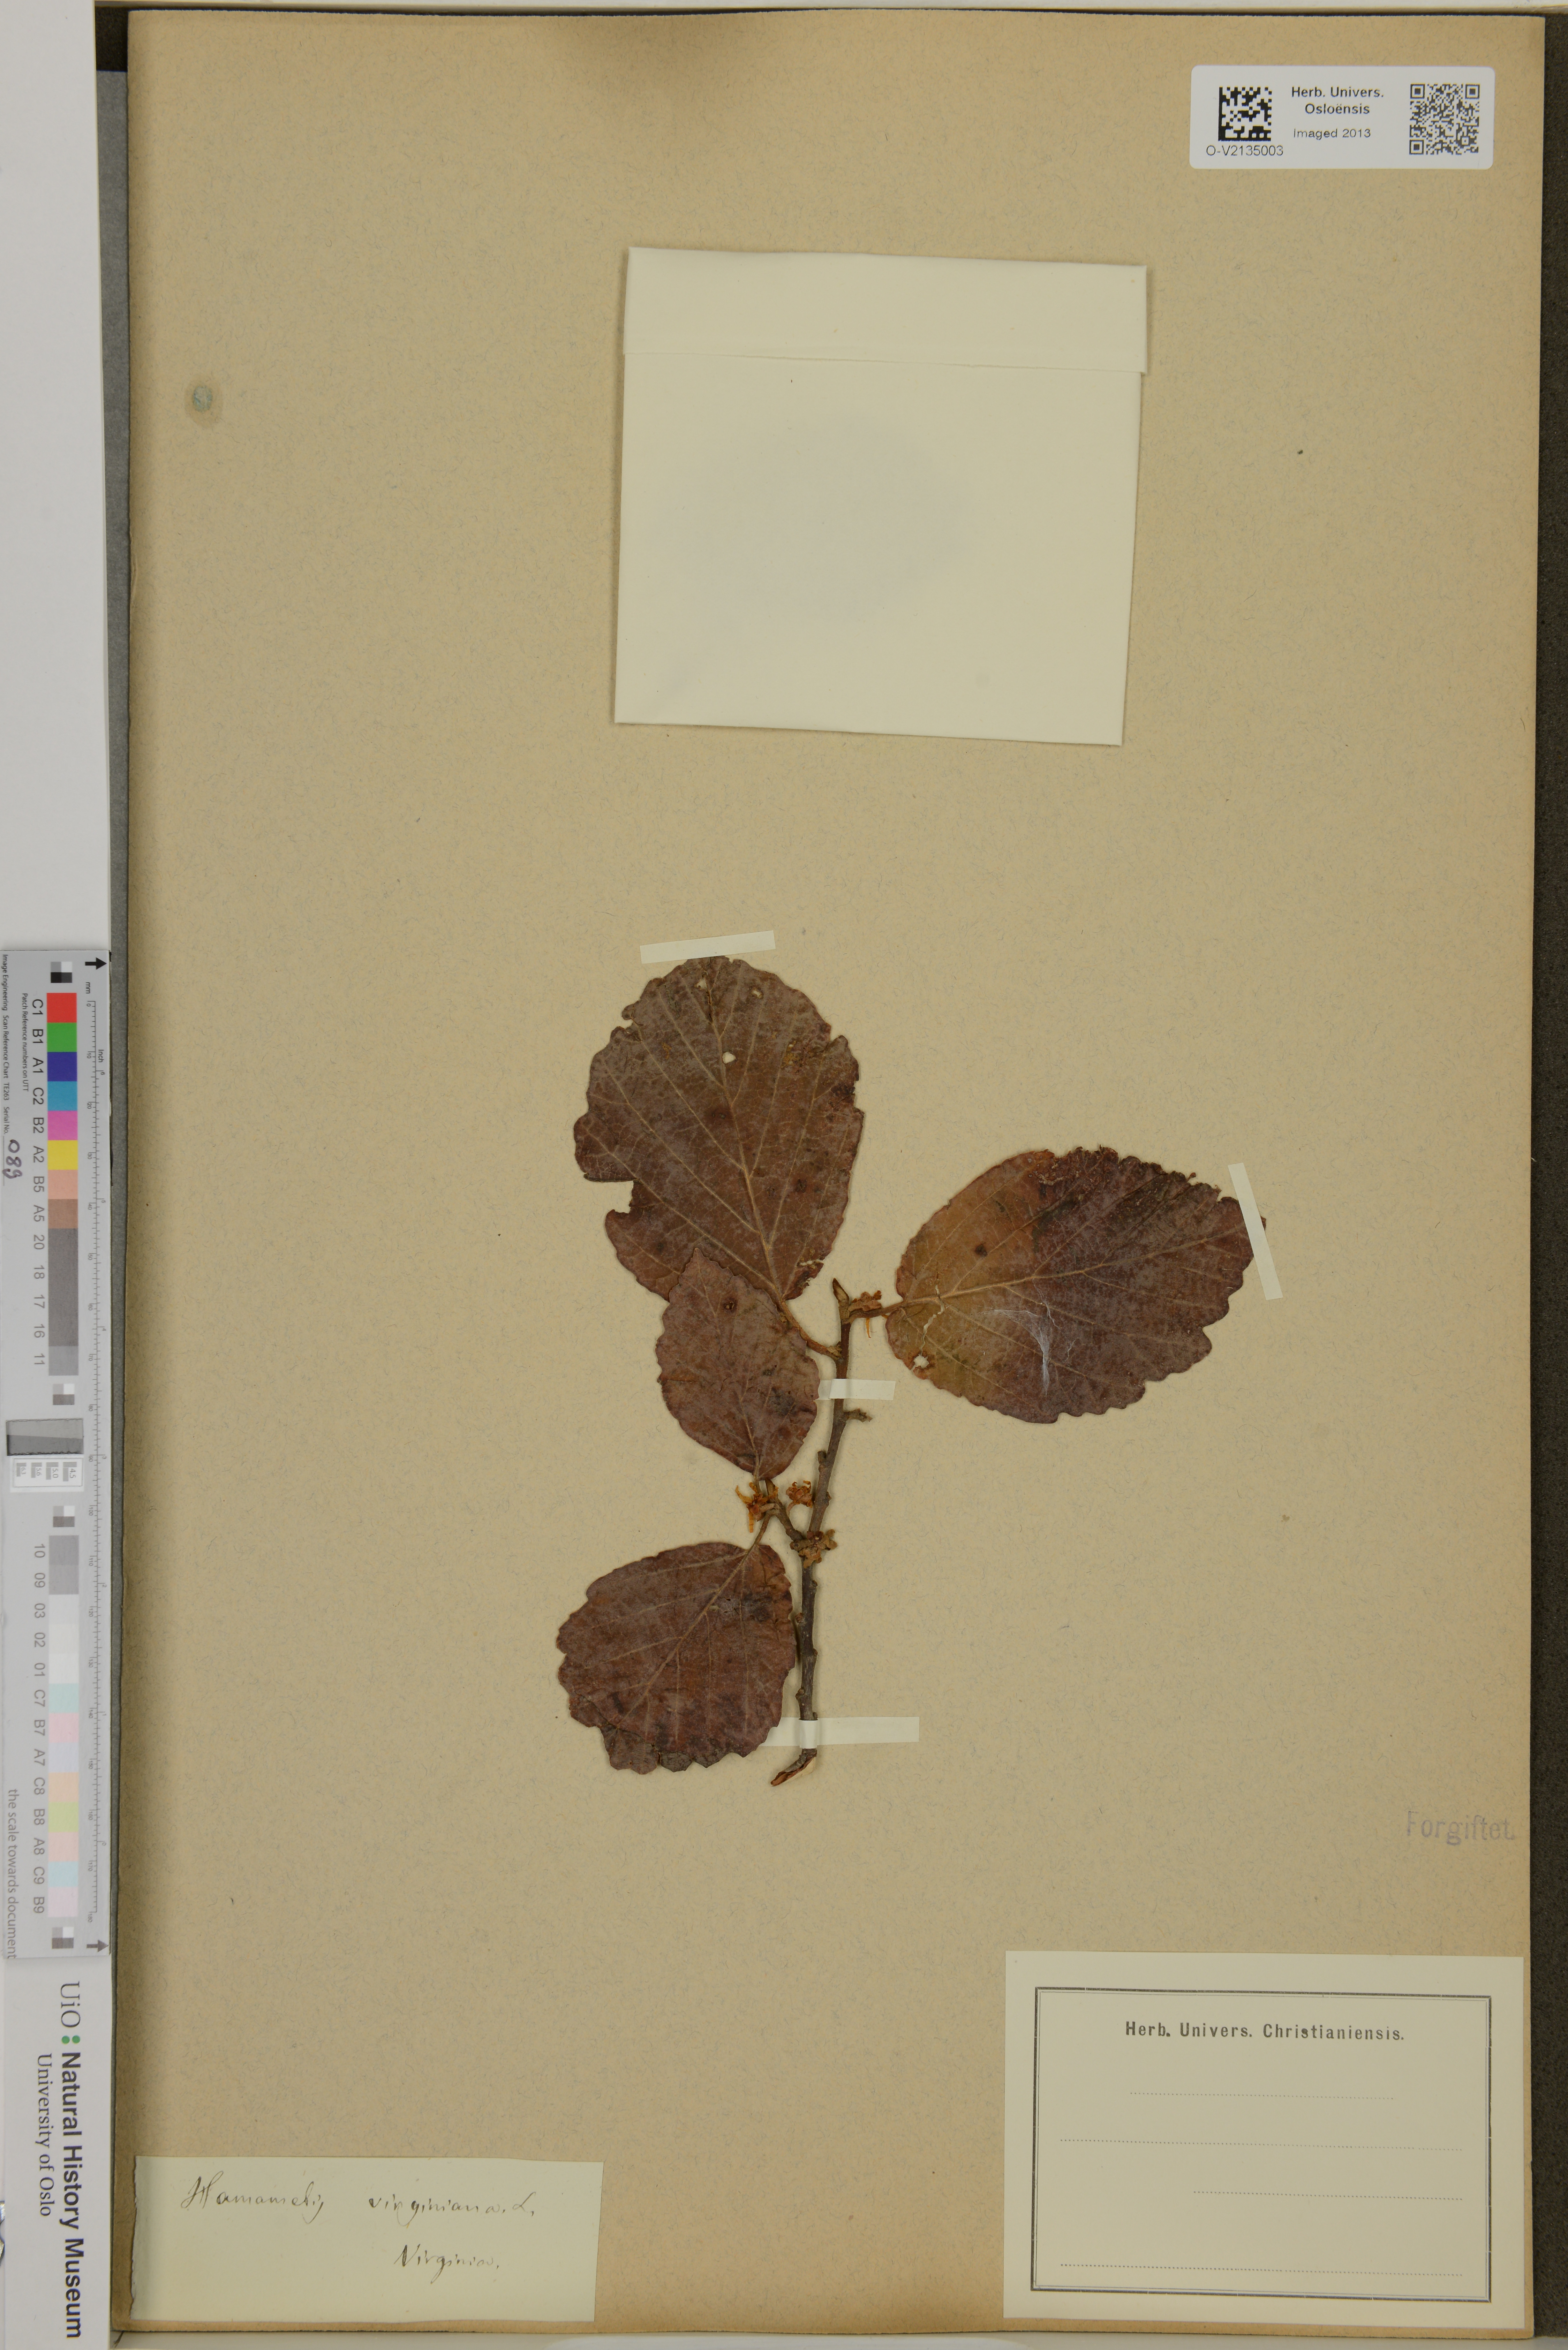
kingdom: Plantae
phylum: Tracheophyta
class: Magnoliopsida
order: Saxifragales
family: Hamamelidaceae
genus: Hamamelis
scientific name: Hamamelis virginiana
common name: Witch-hazel
